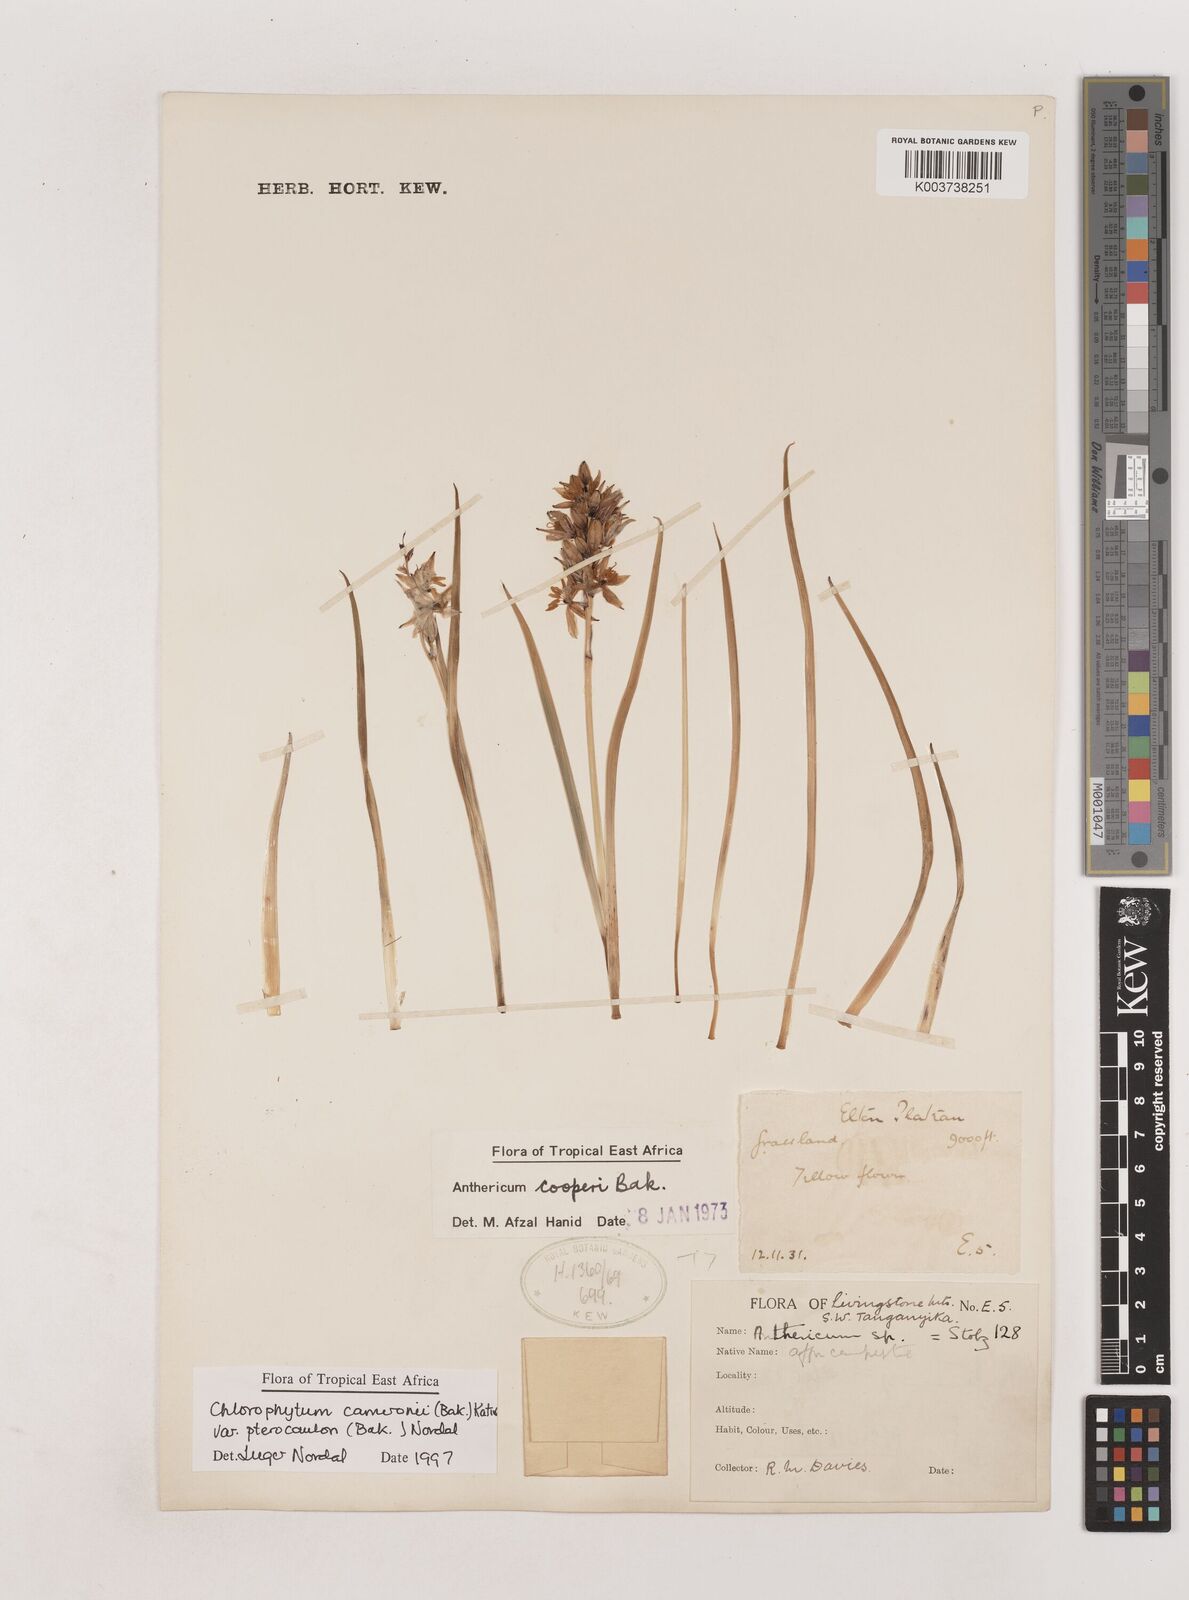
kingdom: Plantae
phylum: Tracheophyta
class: Liliopsida
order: Asparagales
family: Asparagaceae
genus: Chlorophytum
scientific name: Chlorophytum cameronii
